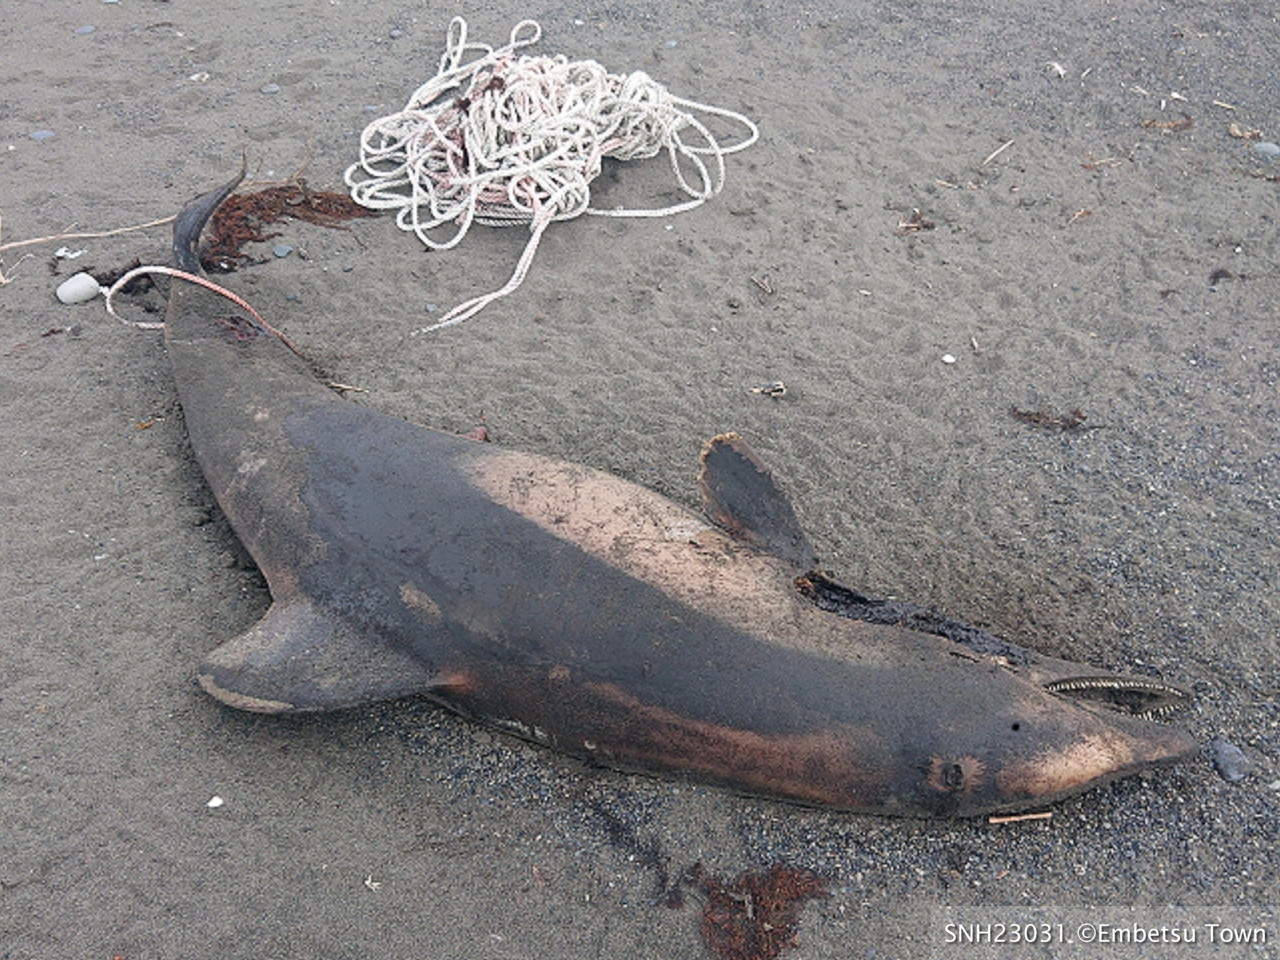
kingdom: Animalia
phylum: Chordata
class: Mammalia
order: Cetacea
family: Delphinidae
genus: Lagenorhynchus
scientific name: Lagenorhynchus obliquidens
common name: Pacific white-sided dolphin
